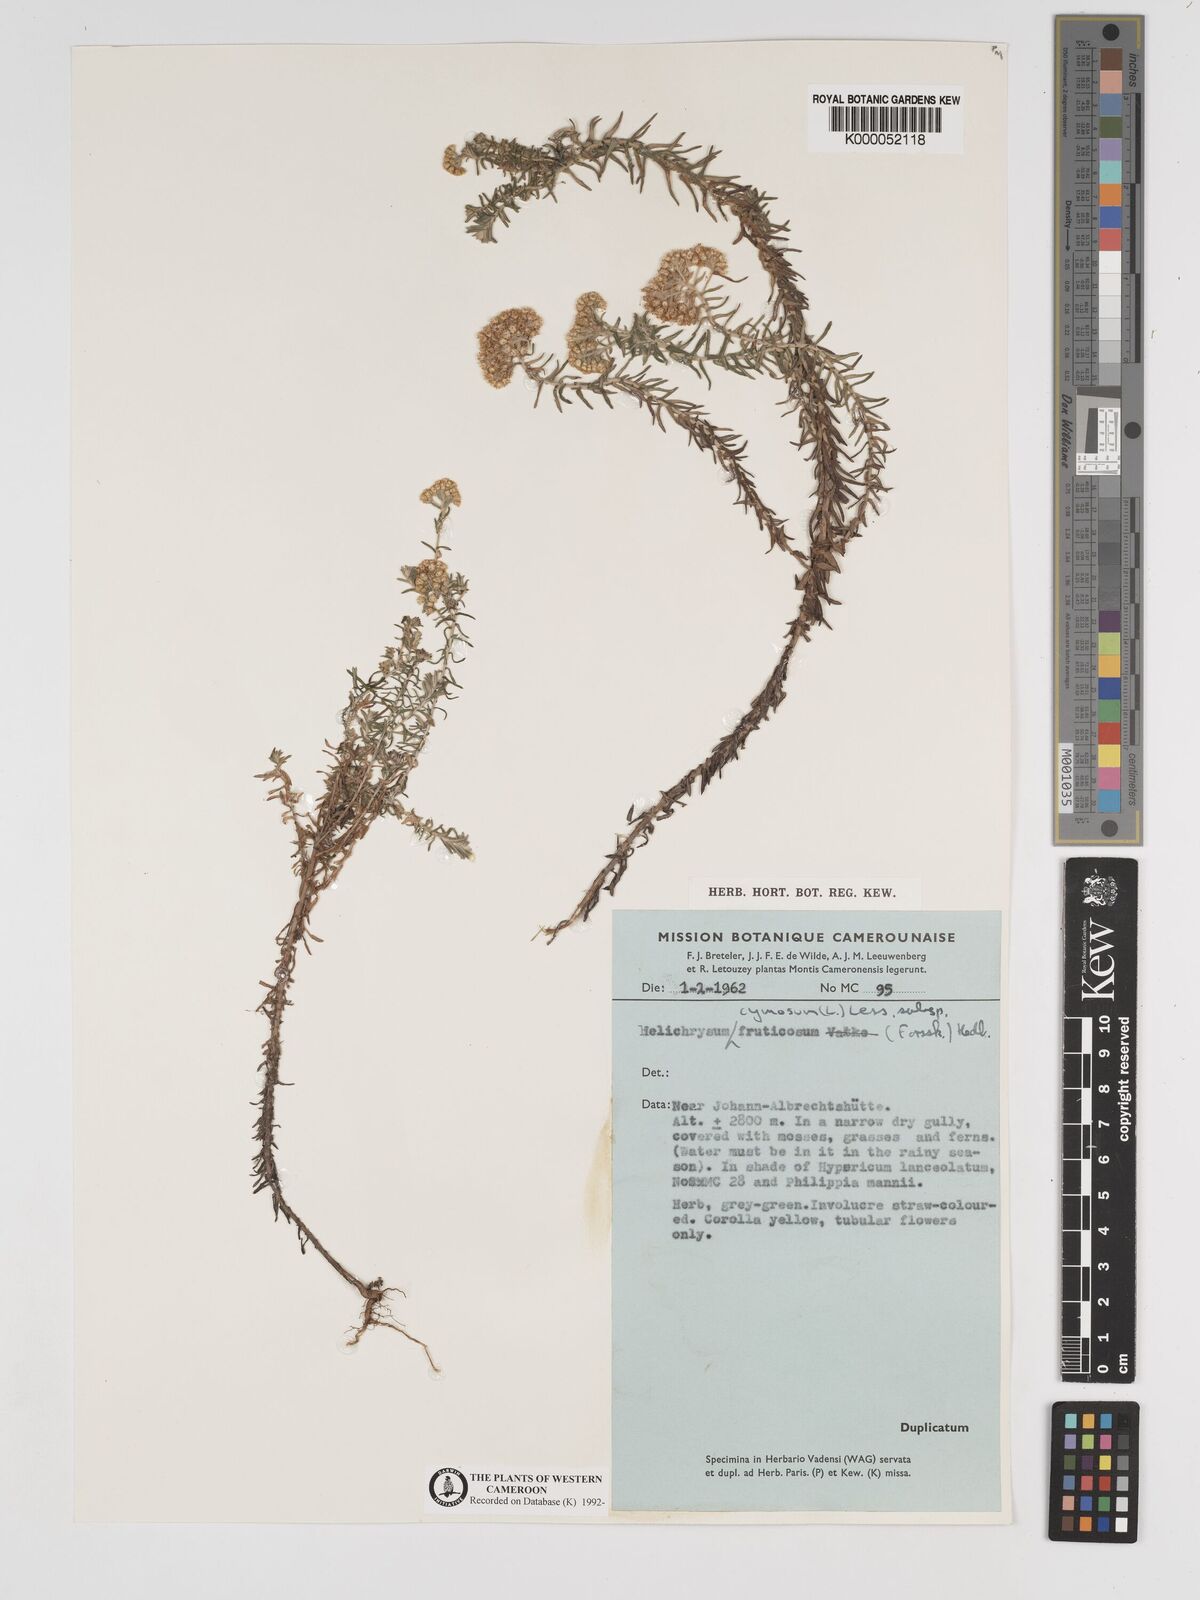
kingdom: Plantae
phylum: Tracheophyta
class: Magnoliopsida
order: Asterales
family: Asteraceae
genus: Helichrysum
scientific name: Helichrysum forskahlii
